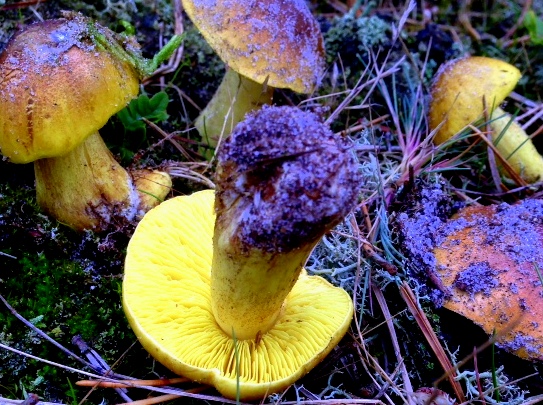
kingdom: Fungi
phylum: Basidiomycota
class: Agaricomycetes
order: Agaricales
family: Tricholomataceae
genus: Tricholoma
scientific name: Tricholoma equestre
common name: ægte ridderhat
